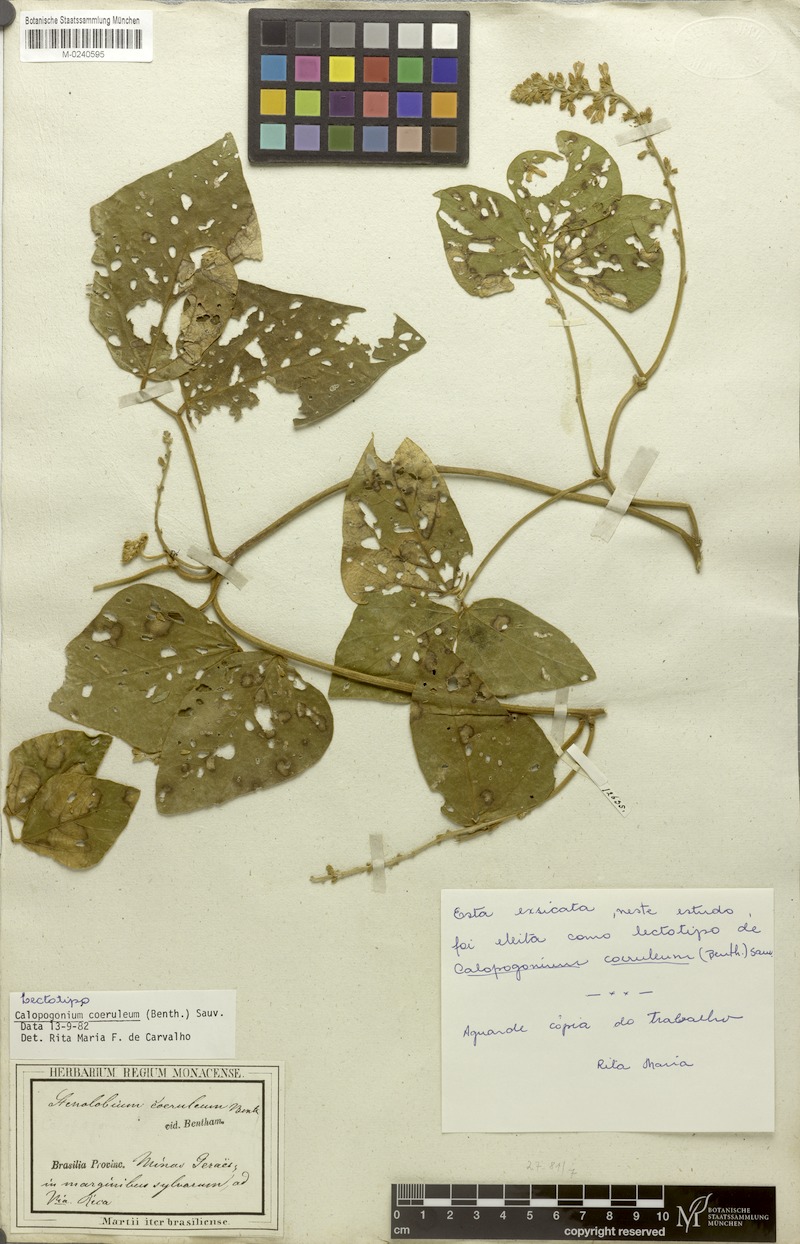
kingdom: Plantae
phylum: Tracheophyta
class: Magnoliopsida
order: Fabales
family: Fabaceae
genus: Calopogonium
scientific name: Calopogonium caeruleum
